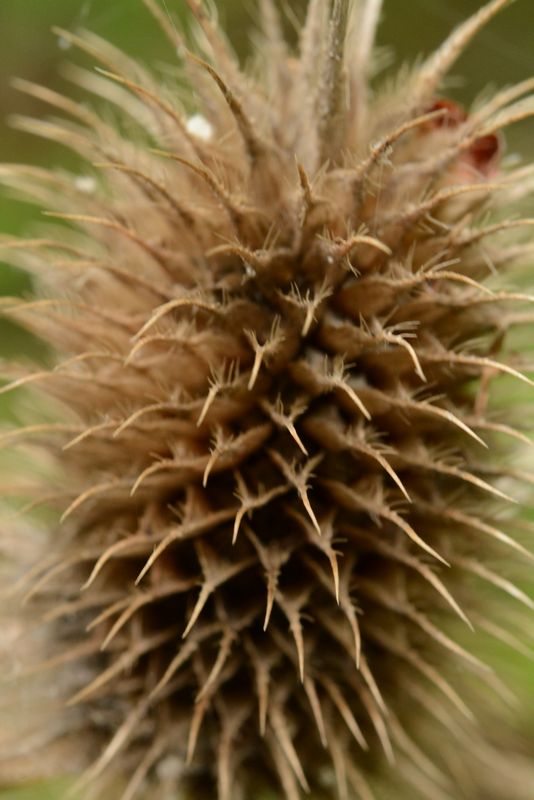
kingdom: Plantae
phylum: Tracheophyta
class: Magnoliopsida
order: Dipsacales
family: Caprifoliaceae
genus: Dipsacus
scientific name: Dipsacus laciniatus
